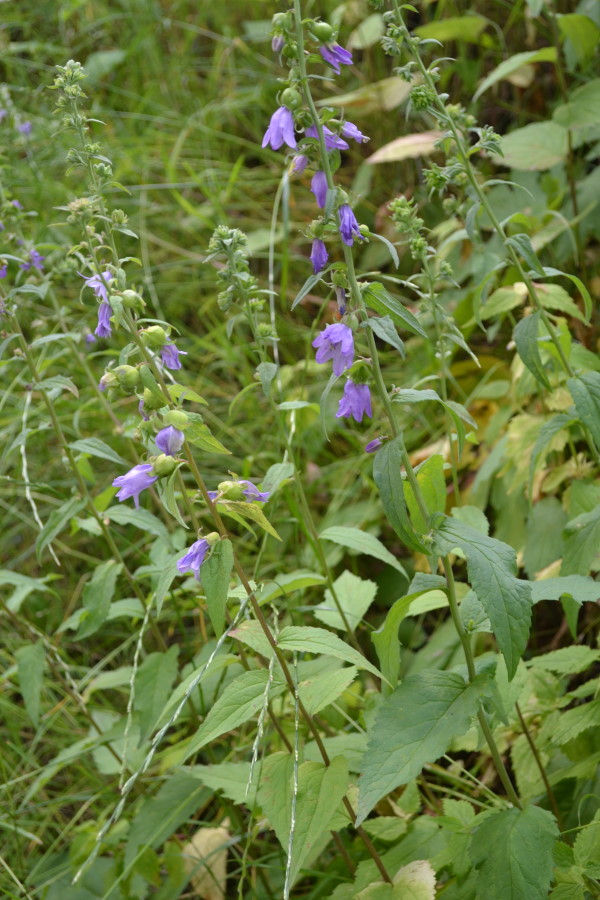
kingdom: Plantae
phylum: Tracheophyta
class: Magnoliopsida
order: Asterales
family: Campanulaceae
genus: Campanula
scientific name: Campanula rapunculoides
